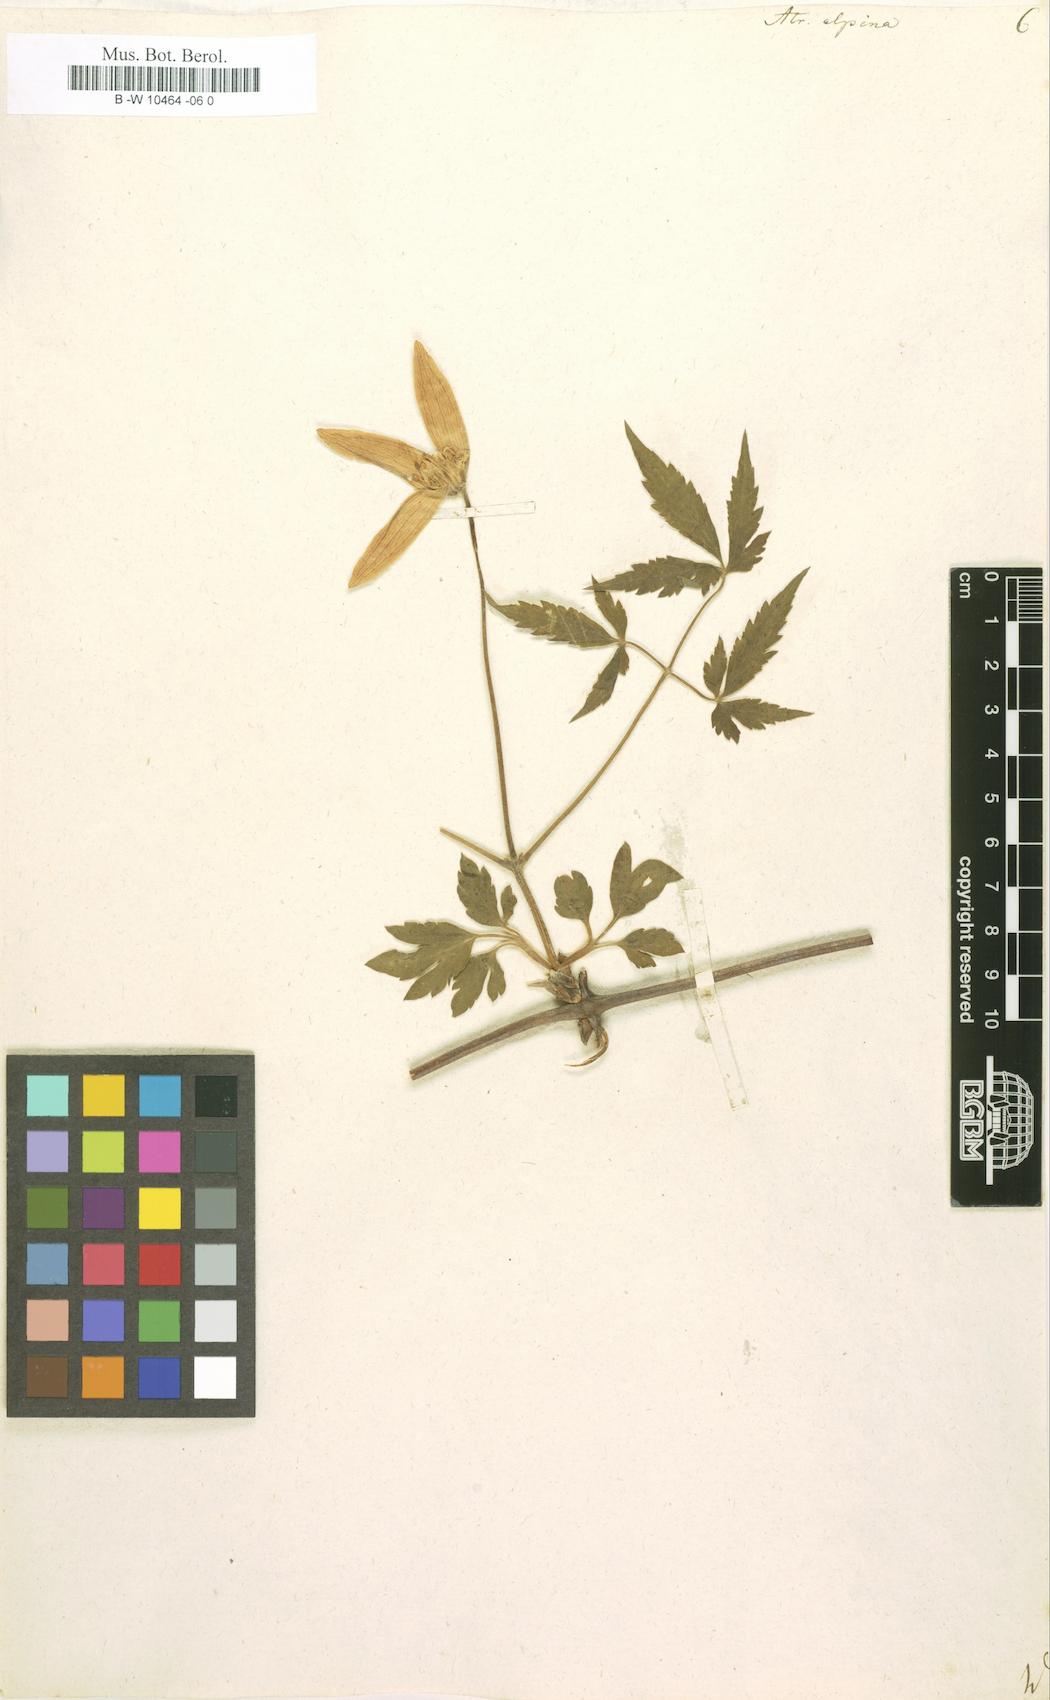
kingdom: Plantae
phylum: Tracheophyta
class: Magnoliopsida
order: Ranunculales
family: Ranunculaceae
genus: Clematis
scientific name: Clematis alpina
